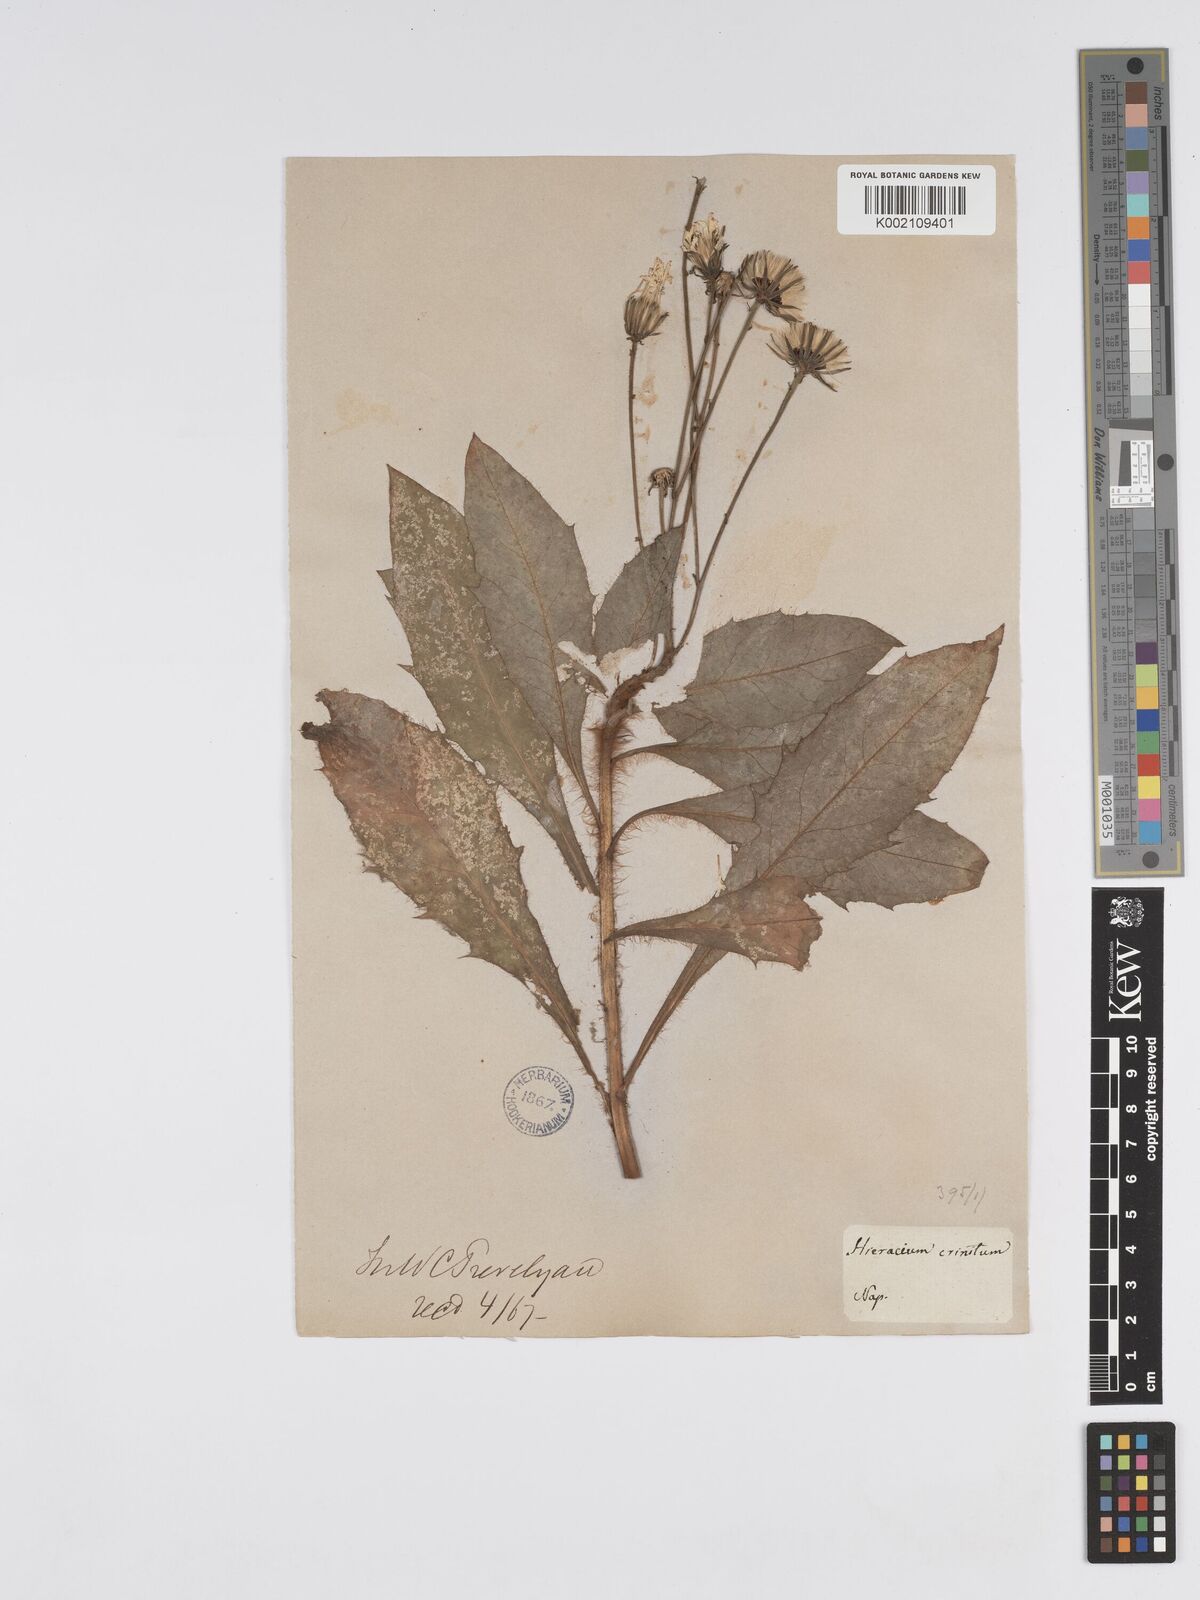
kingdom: Plantae
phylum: Tracheophyta
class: Magnoliopsida
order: Asterales
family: Asteraceae
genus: Hieracium
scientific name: Hieracium racemosum
